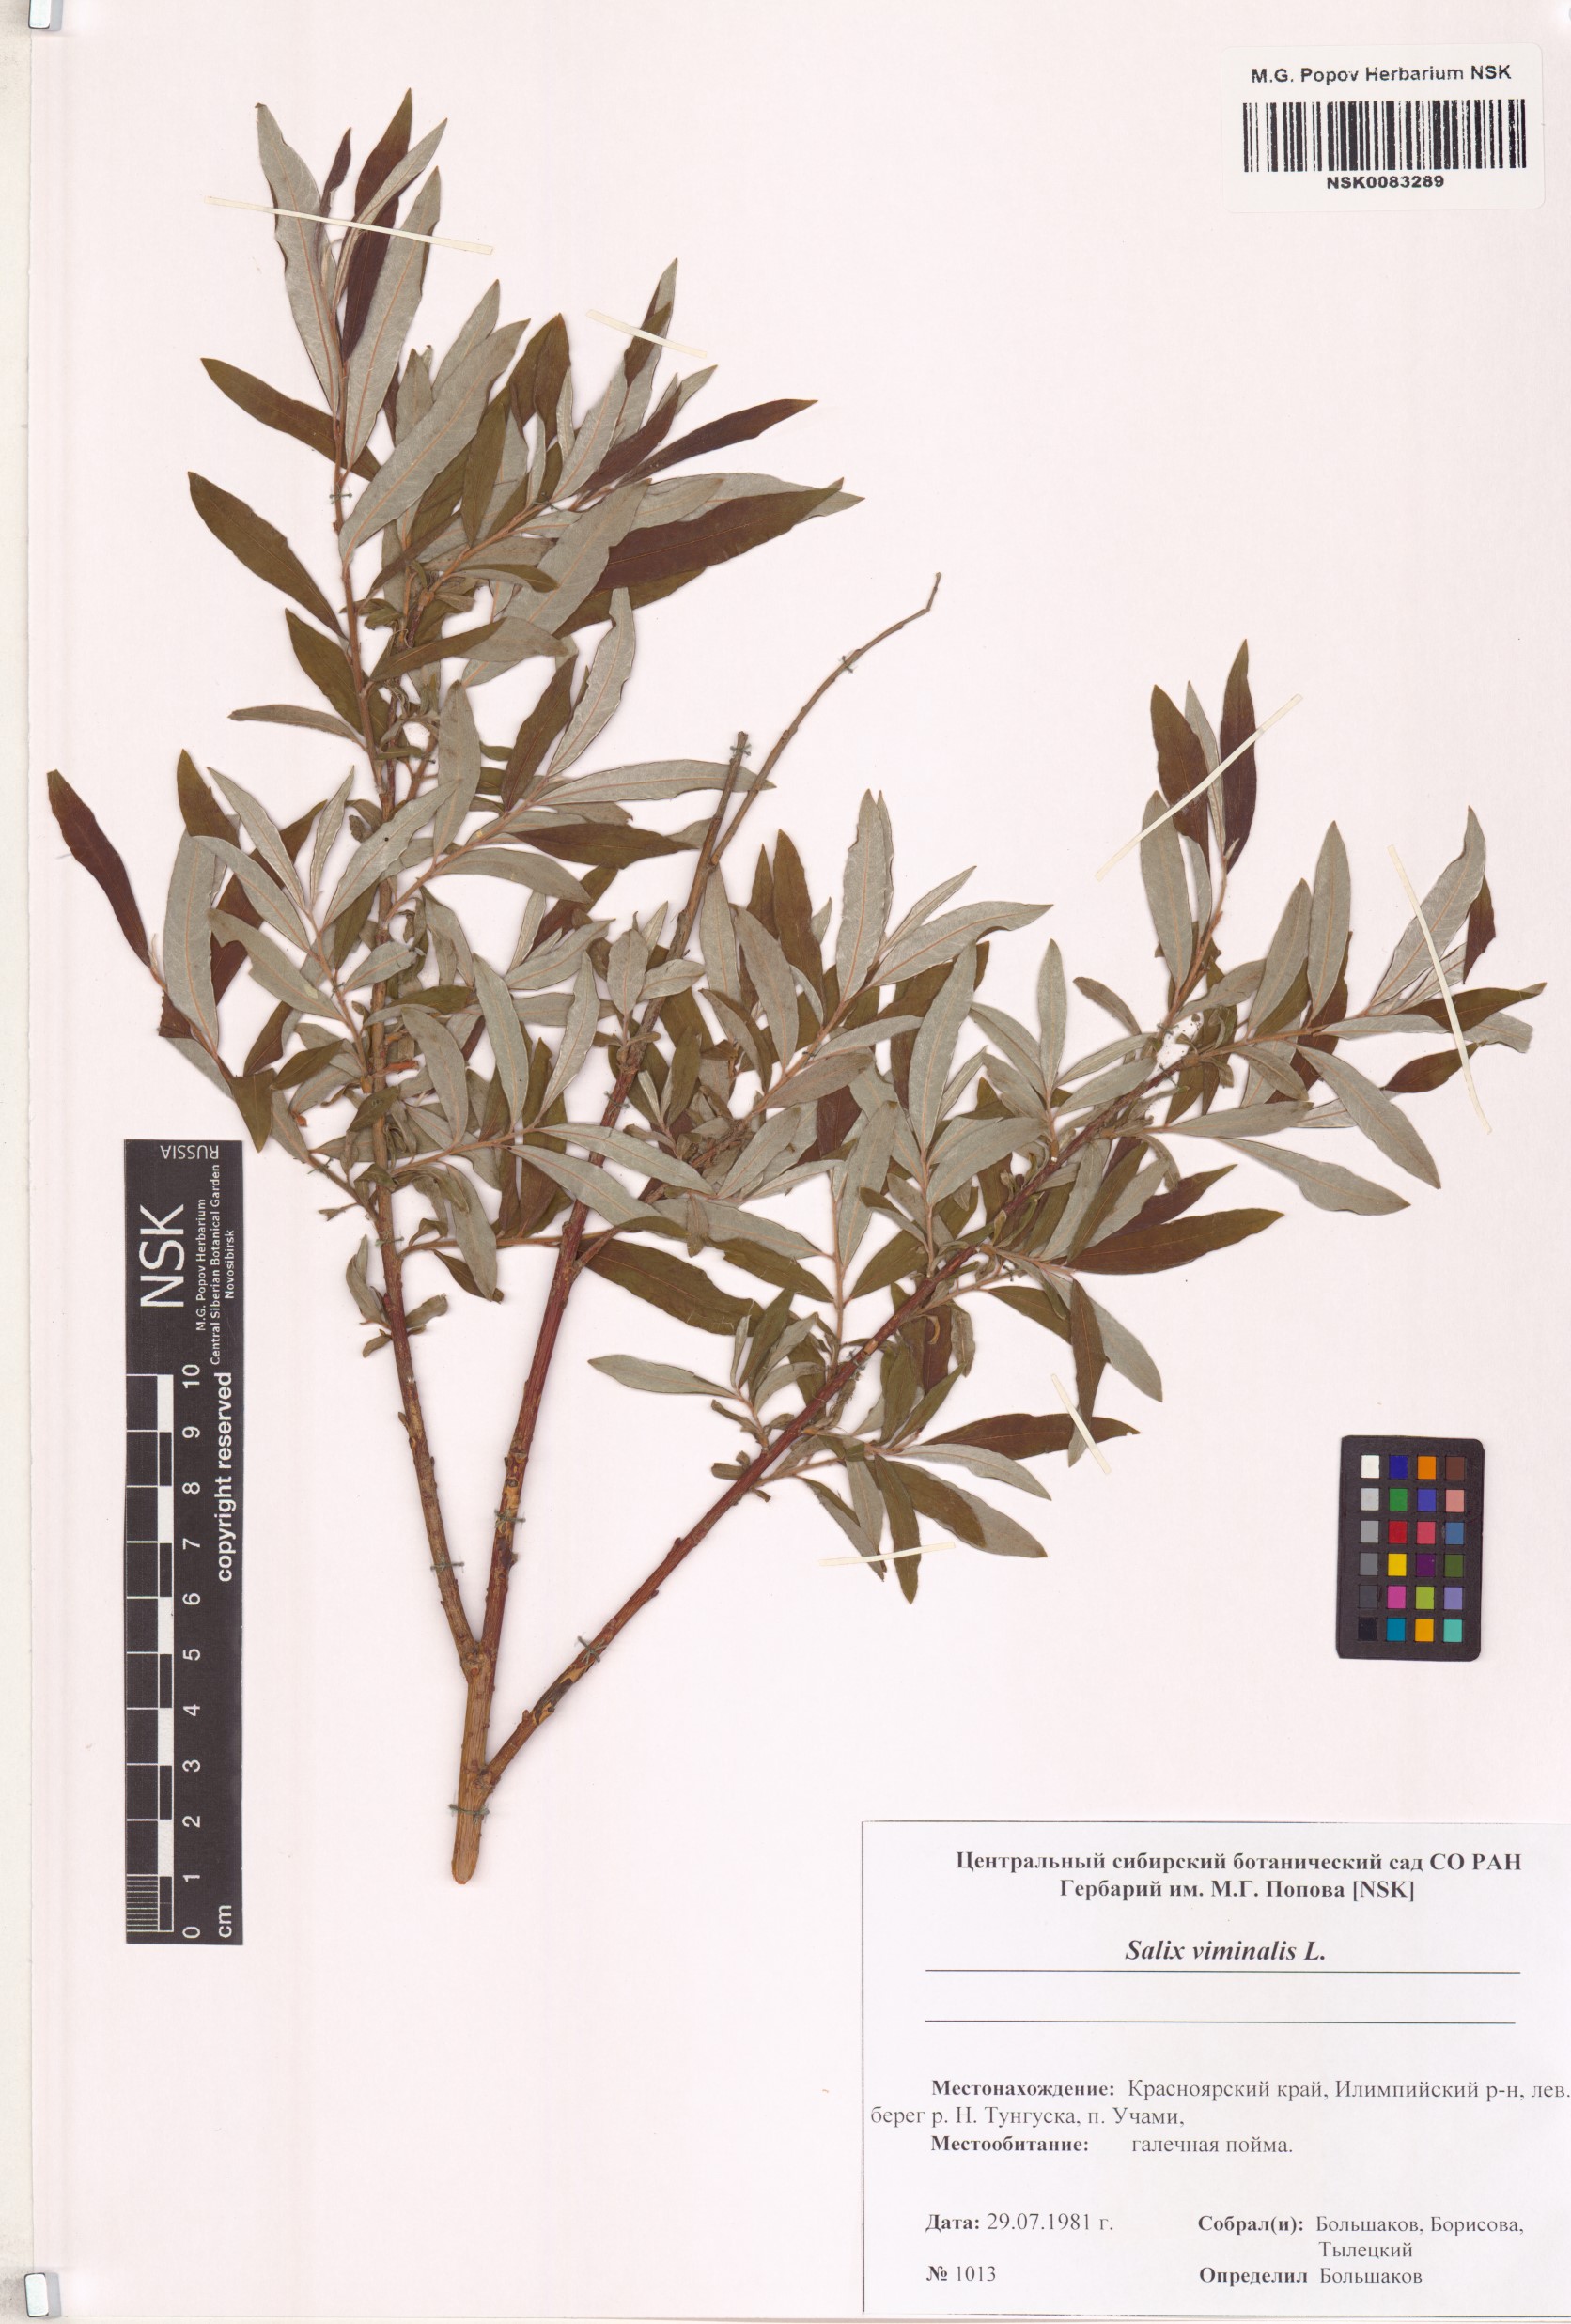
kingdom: Plantae
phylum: Tracheophyta
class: Magnoliopsida
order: Malpighiales
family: Salicaceae
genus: Salix
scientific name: Salix viminalis
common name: Osier
